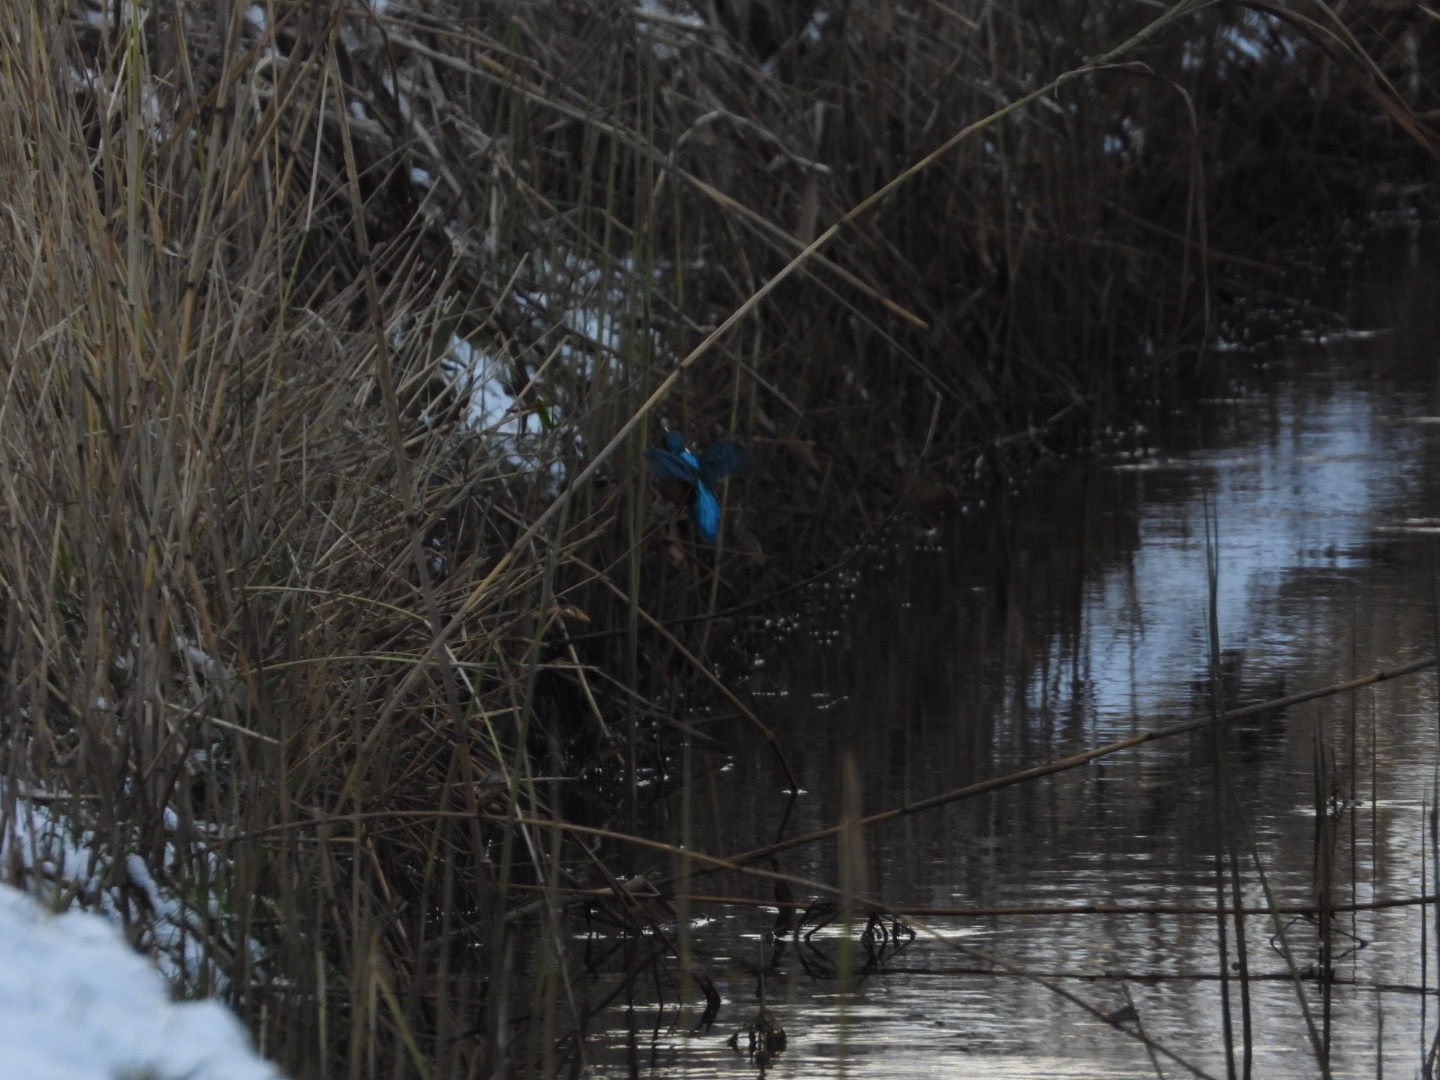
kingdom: Animalia
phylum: Chordata
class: Aves
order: Coraciiformes
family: Alcedinidae
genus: Alcedo
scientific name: Alcedo atthis
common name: Isfugl
